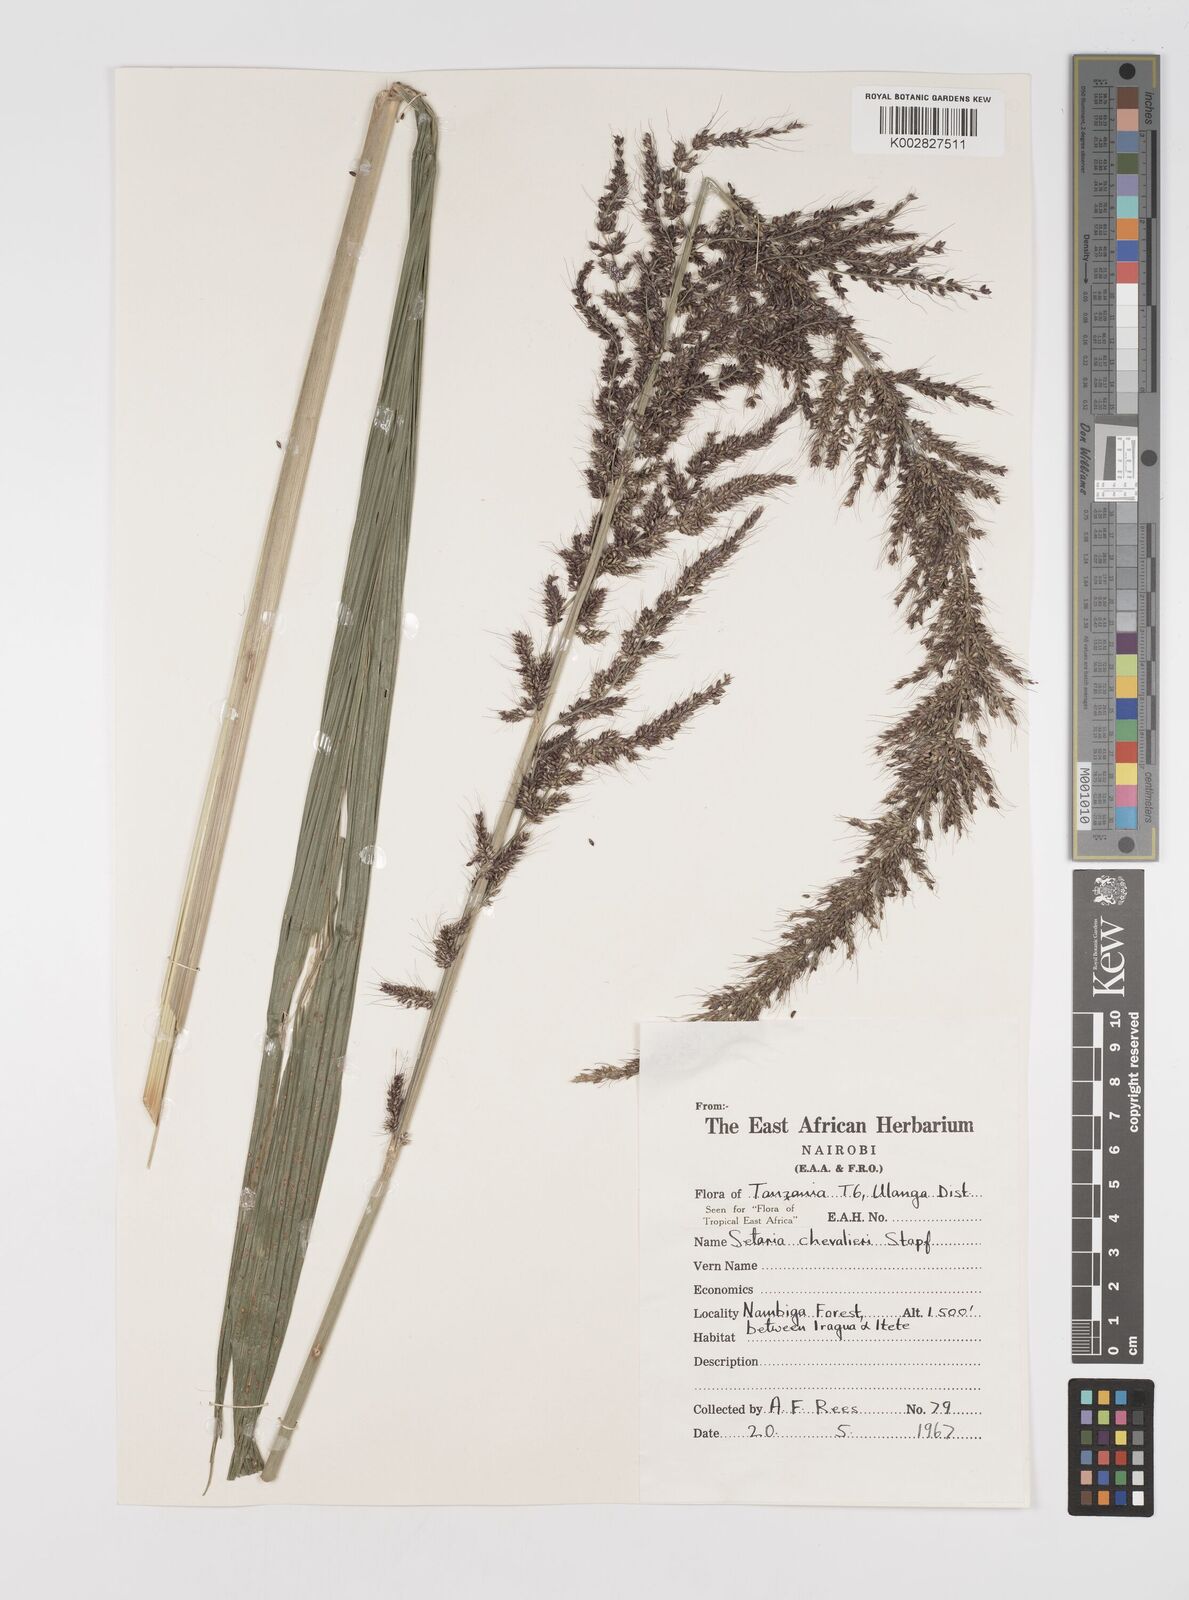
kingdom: Plantae
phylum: Tracheophyta
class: Liliopsida
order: Poales
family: Poaceae
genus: Setaria
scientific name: Setaria megaphylla
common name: Bigleaf bristlegrass
